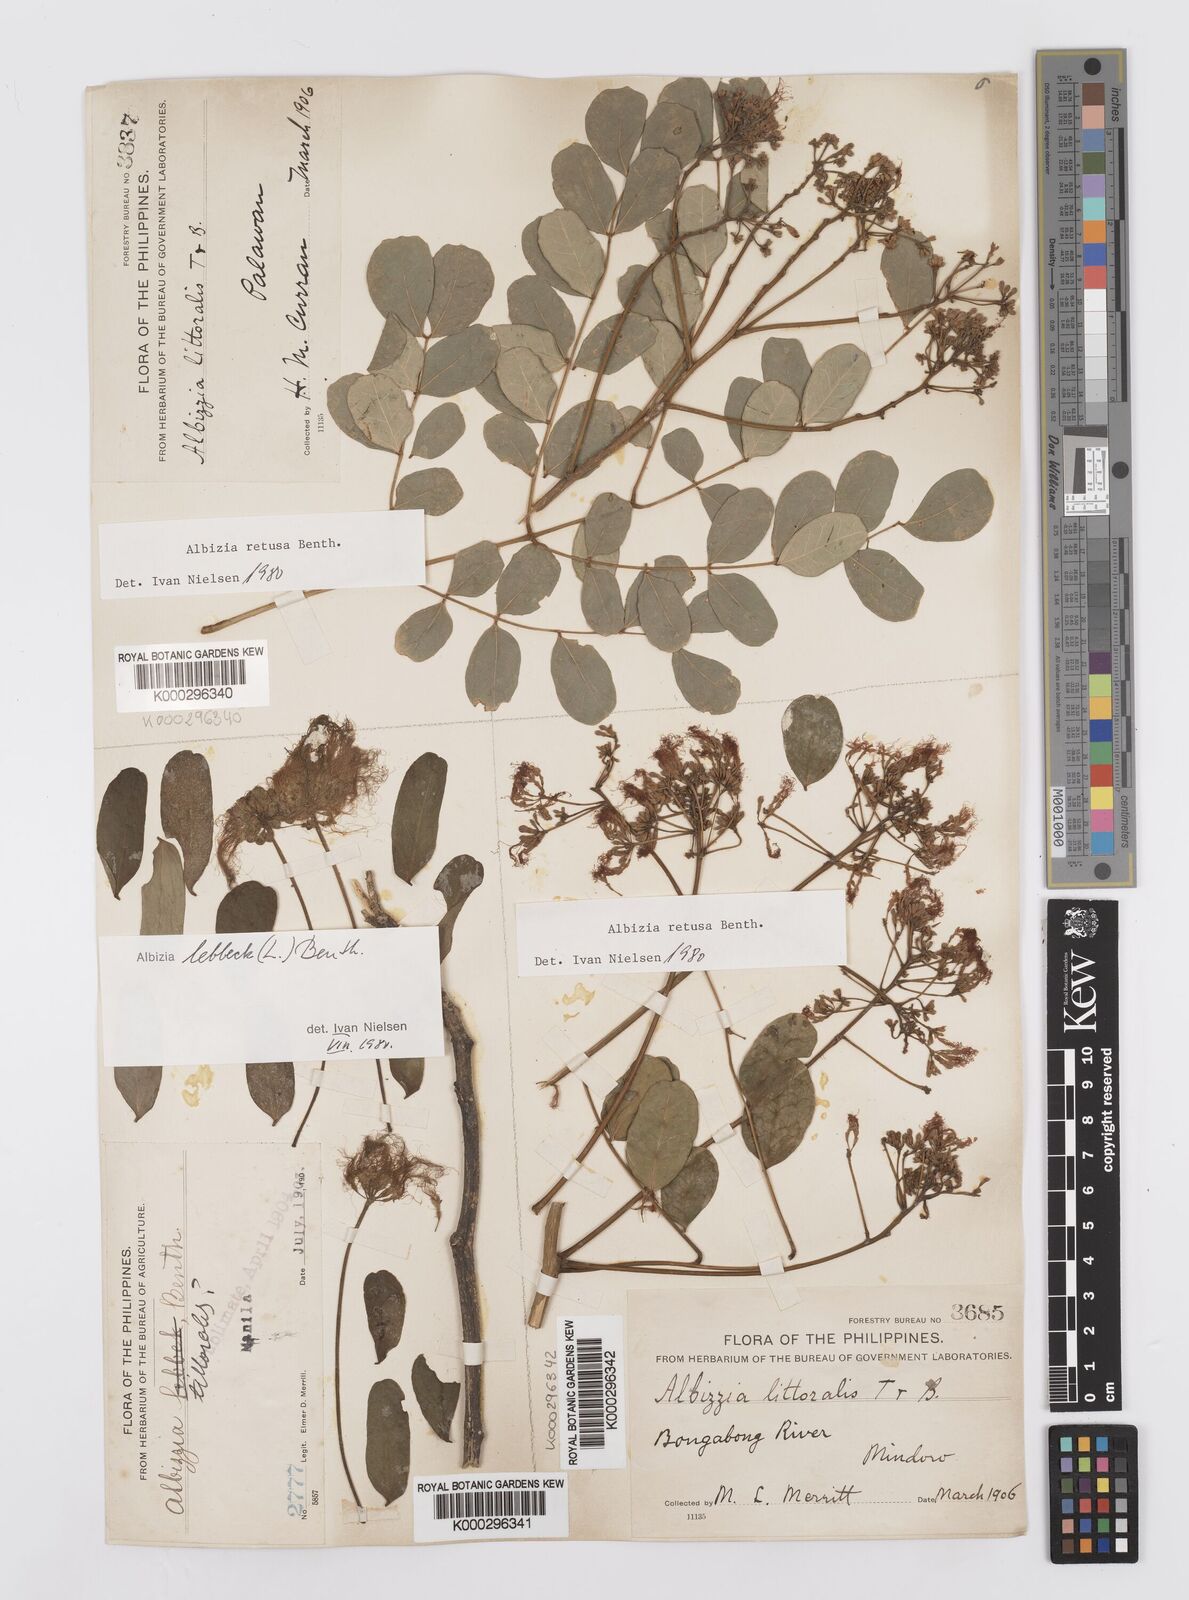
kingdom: Plantae
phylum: Tracheophyta
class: Magnoliopsida
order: Fabales
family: Fabaceae
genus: Albizia
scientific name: Albizia retusa
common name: Sea albizia
